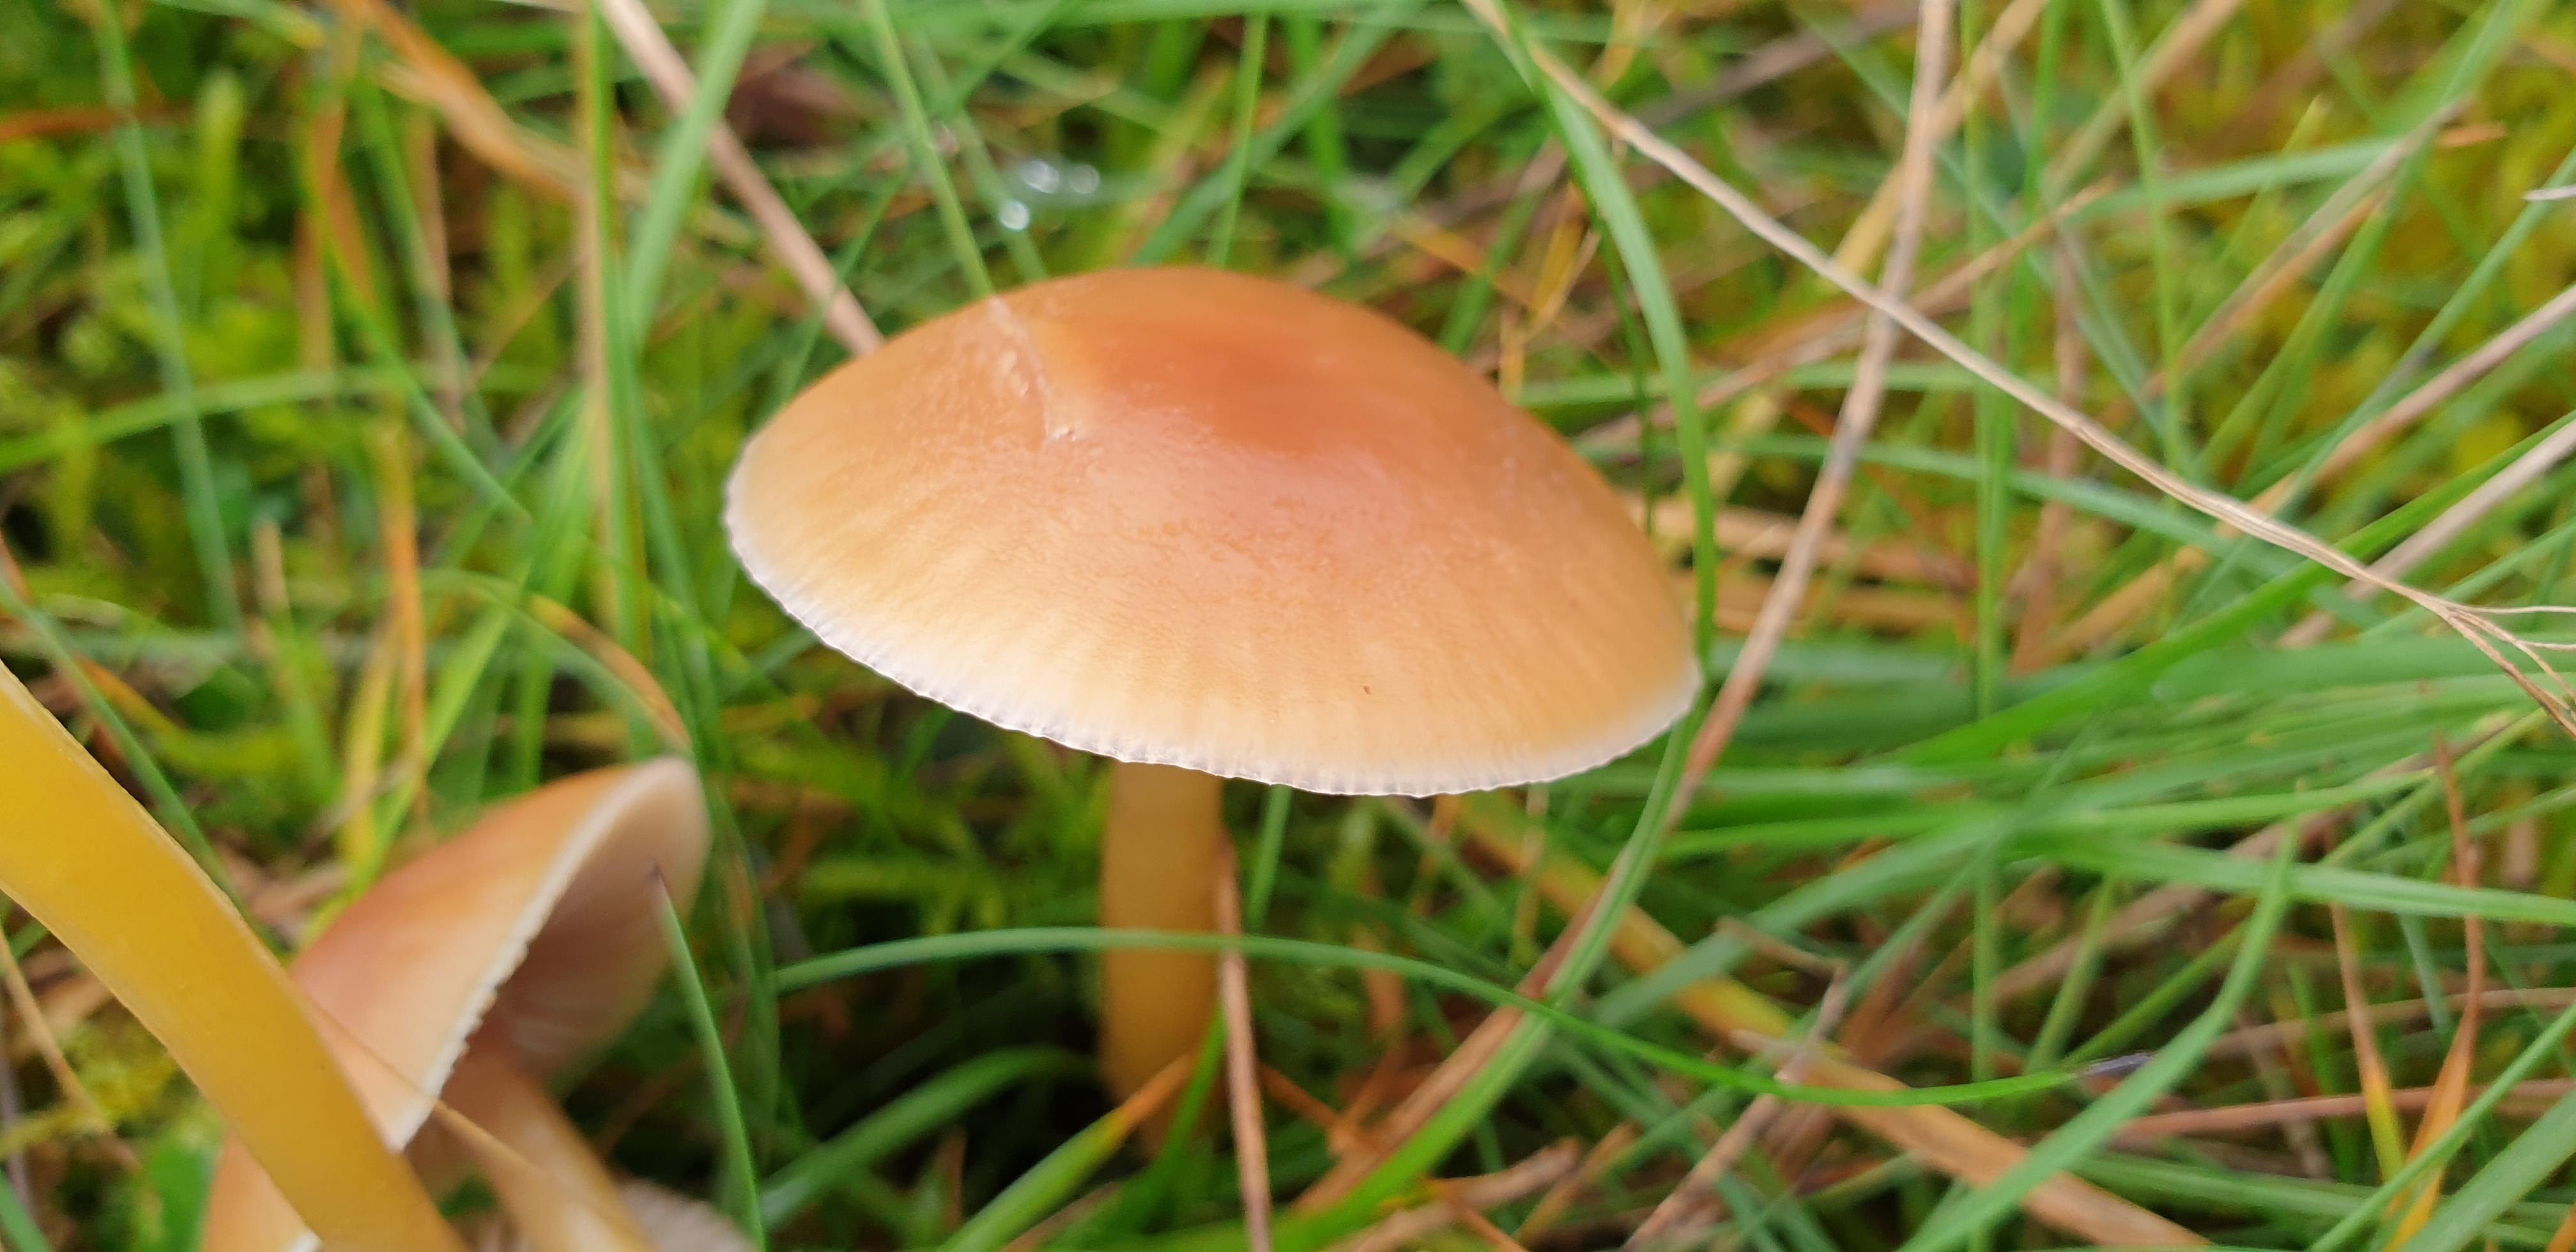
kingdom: Fungi
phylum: Basidiomycota
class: Agaricomycetes
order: Agaricales
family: Hygrophoraceae
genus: Gliophorus
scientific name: Gliophorus laetus
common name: brusk-vokshat
